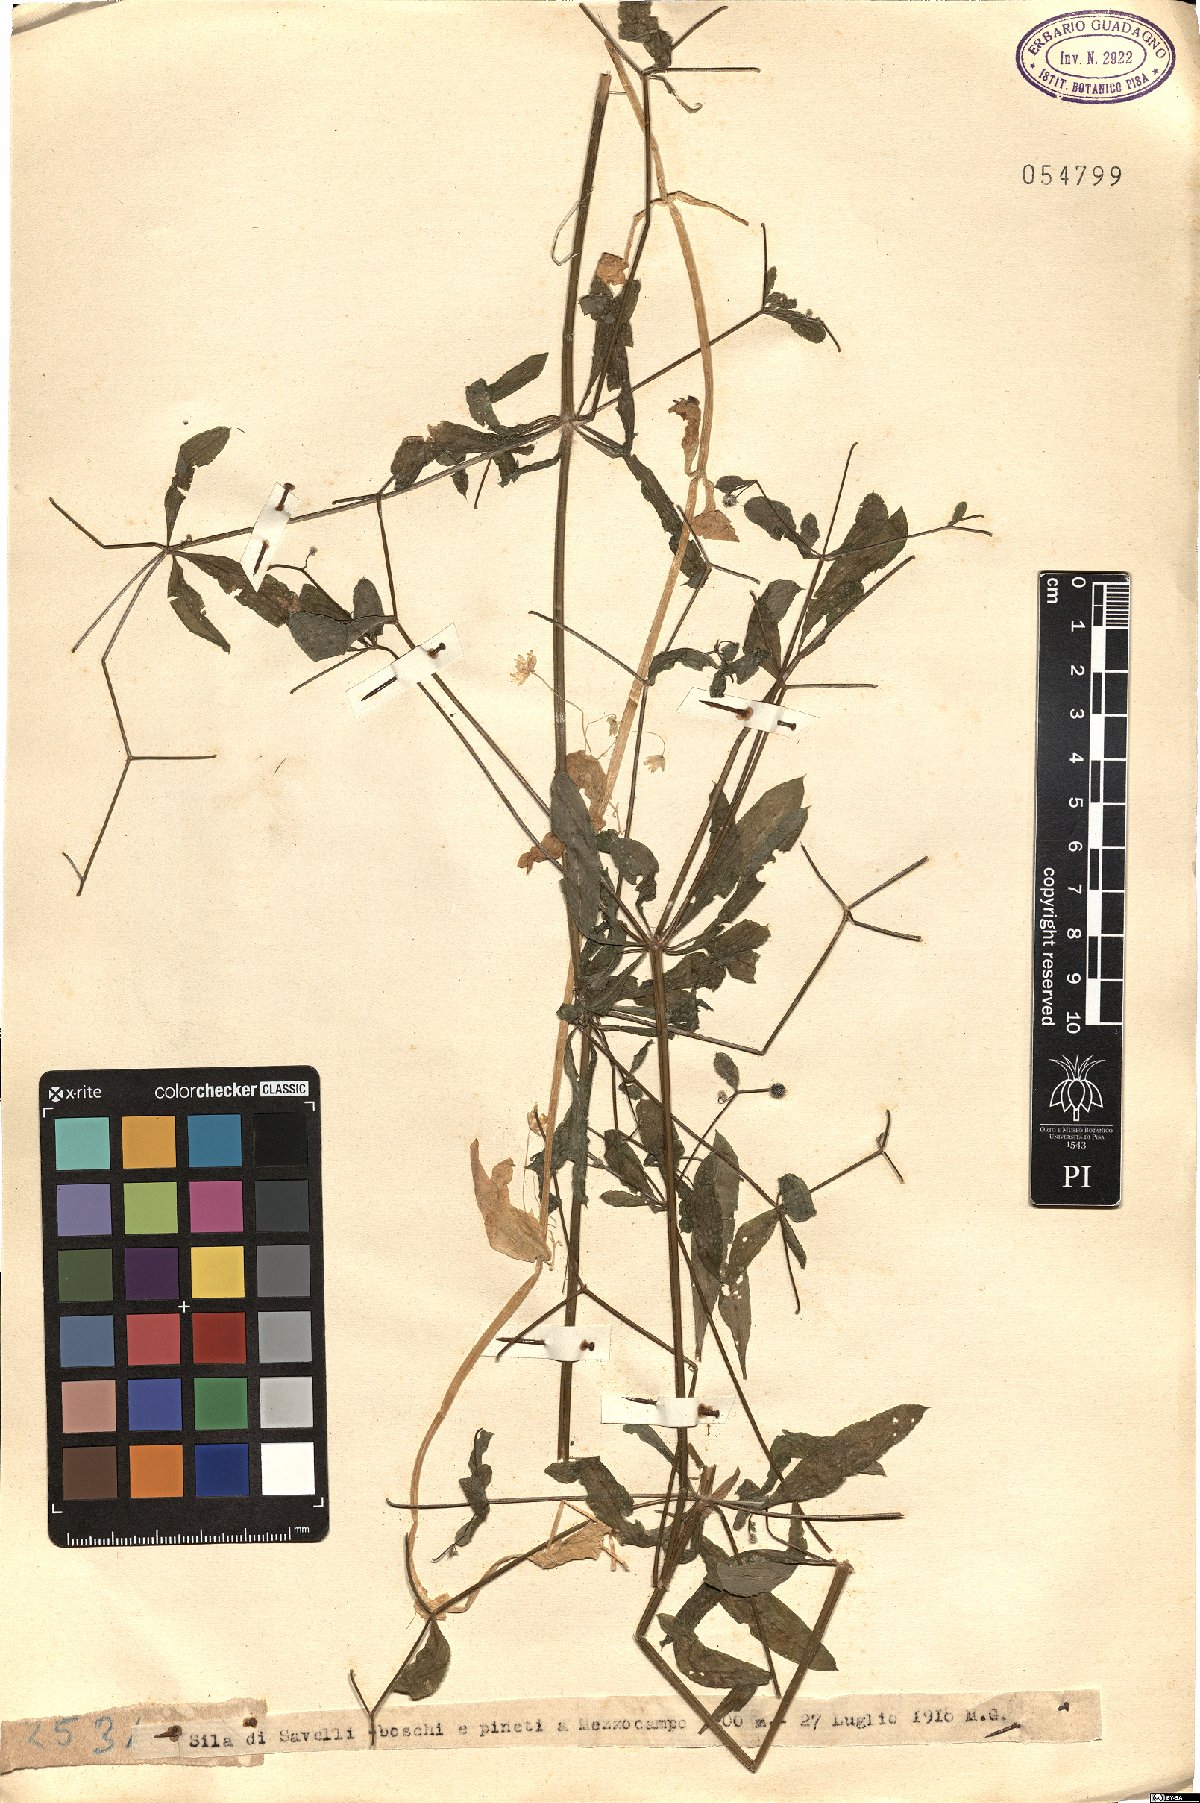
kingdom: Plantae
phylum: Tracheophyta
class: Magnoliopsida
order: Gentianales
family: Rubiaceae
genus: Rubia
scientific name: Rubia
